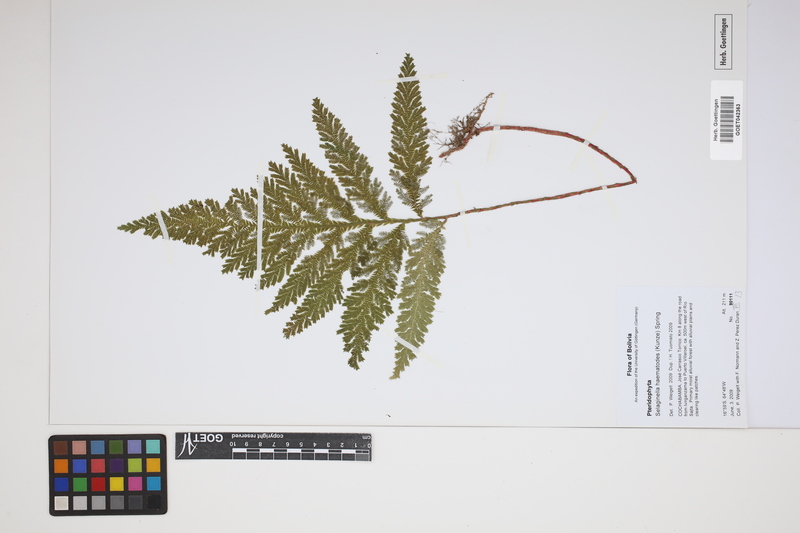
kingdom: Plantae
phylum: Tracheophyta
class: Lycopodiopsida
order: Selaginellales
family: Selaginellaceae
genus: Selaginella
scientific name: Selaginella haematodes
